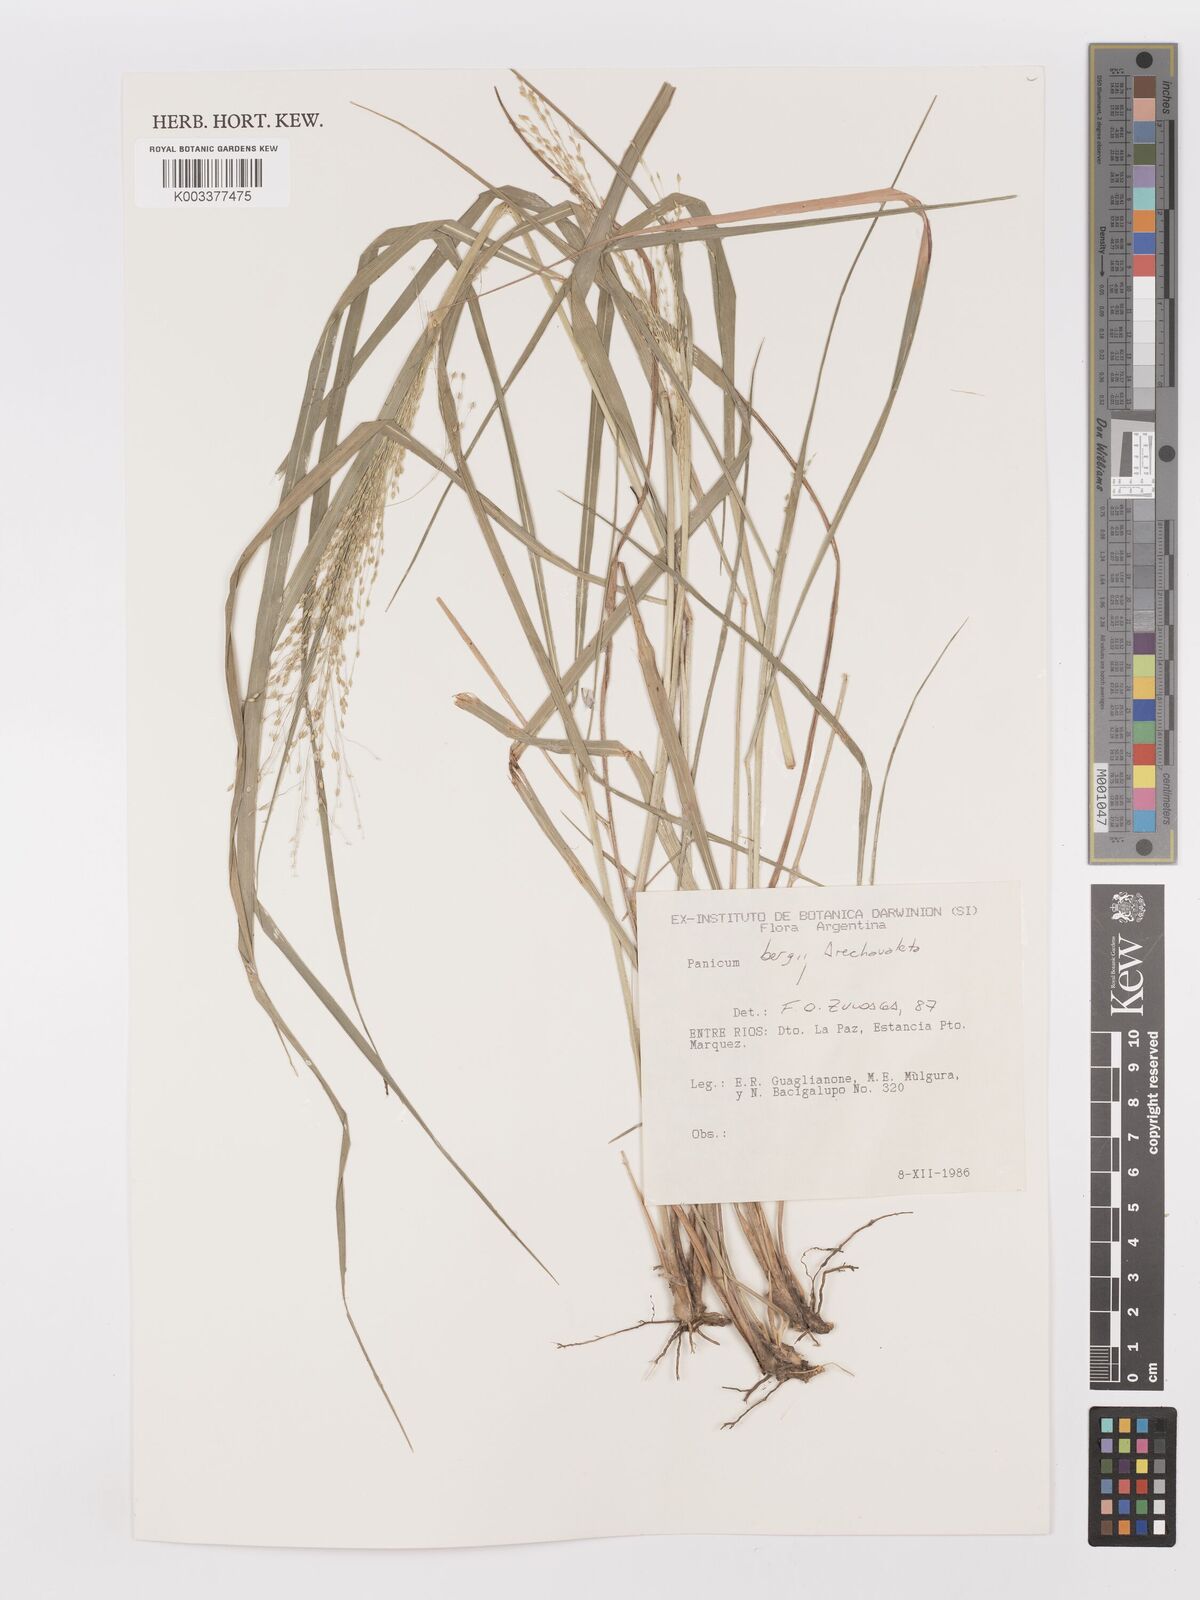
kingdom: Plantae
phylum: Tracheophyta
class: Liliopsida
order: Poales
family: Poaceae
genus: Panicum
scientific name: Panicum bergii
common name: Berg's panicgrass
